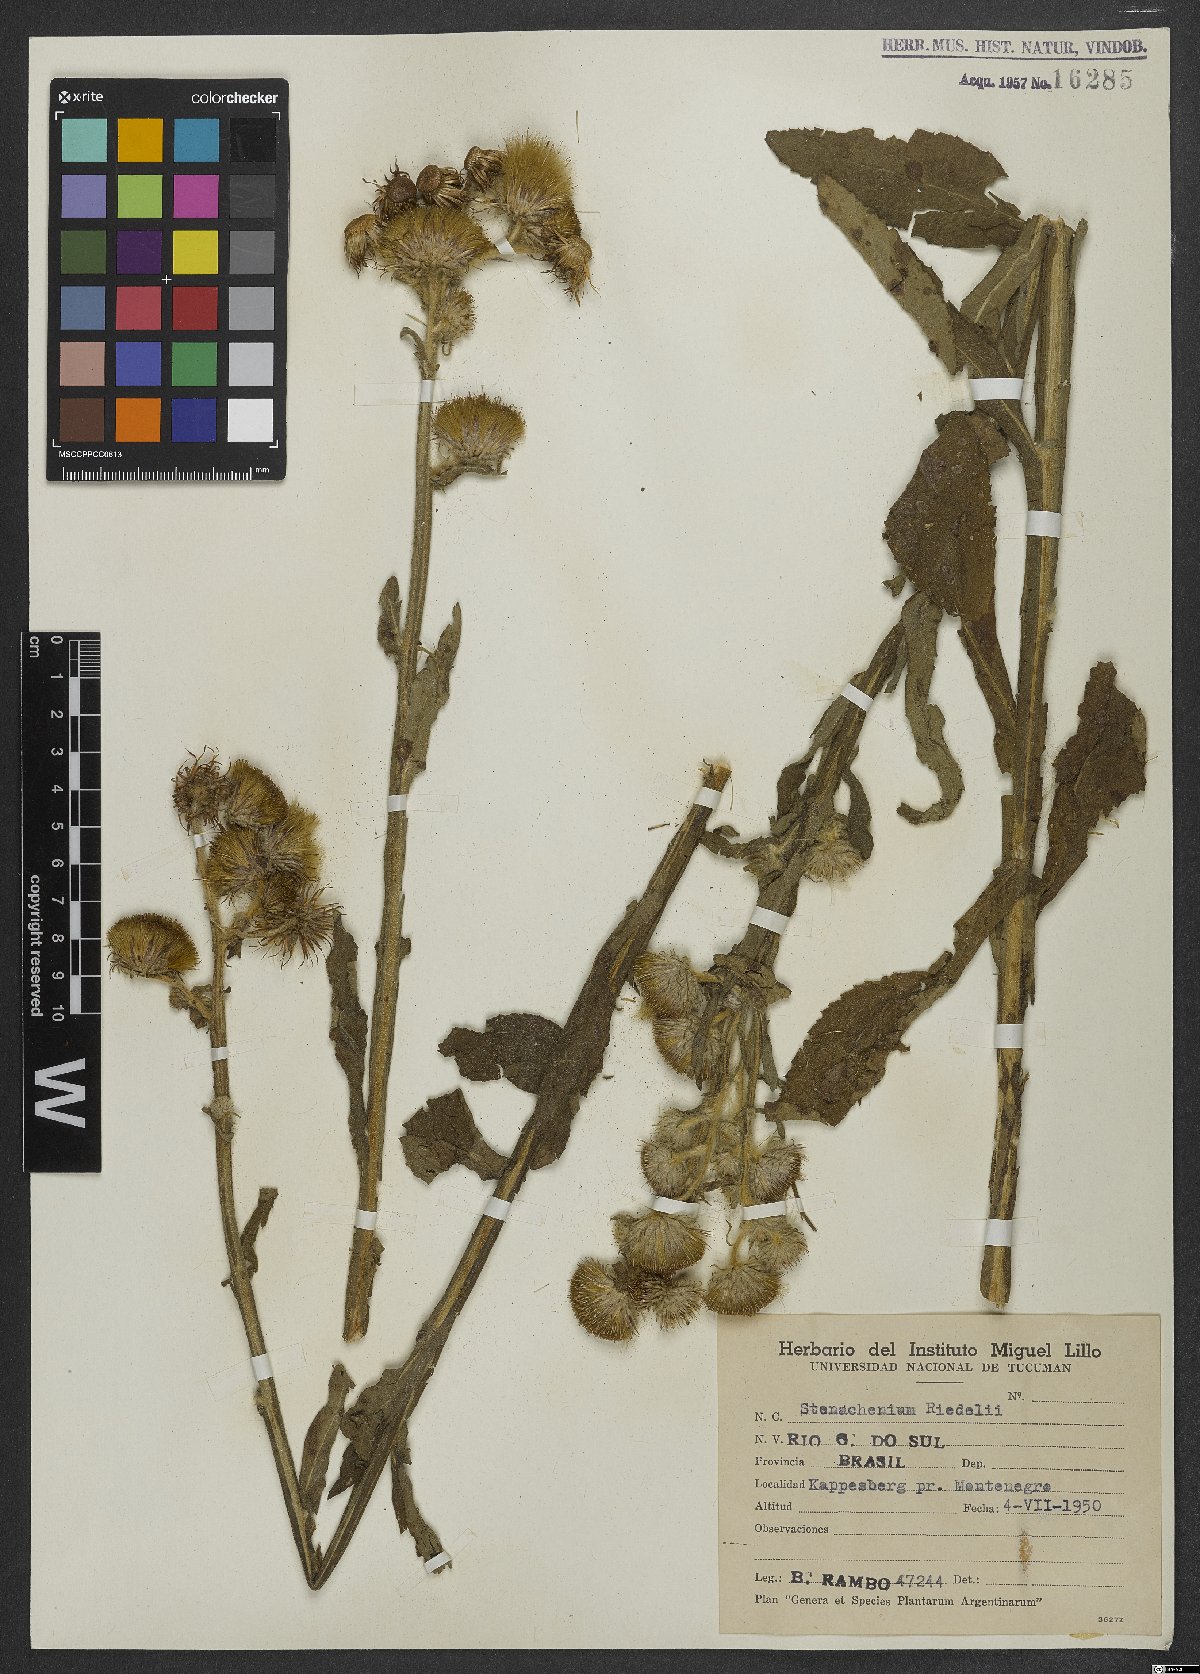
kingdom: Plantae
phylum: Tracheophyta
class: Magnoliopsida
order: Asterales
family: Asteraceae
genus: Stenachaenium
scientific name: Stenachaenium riedelii
